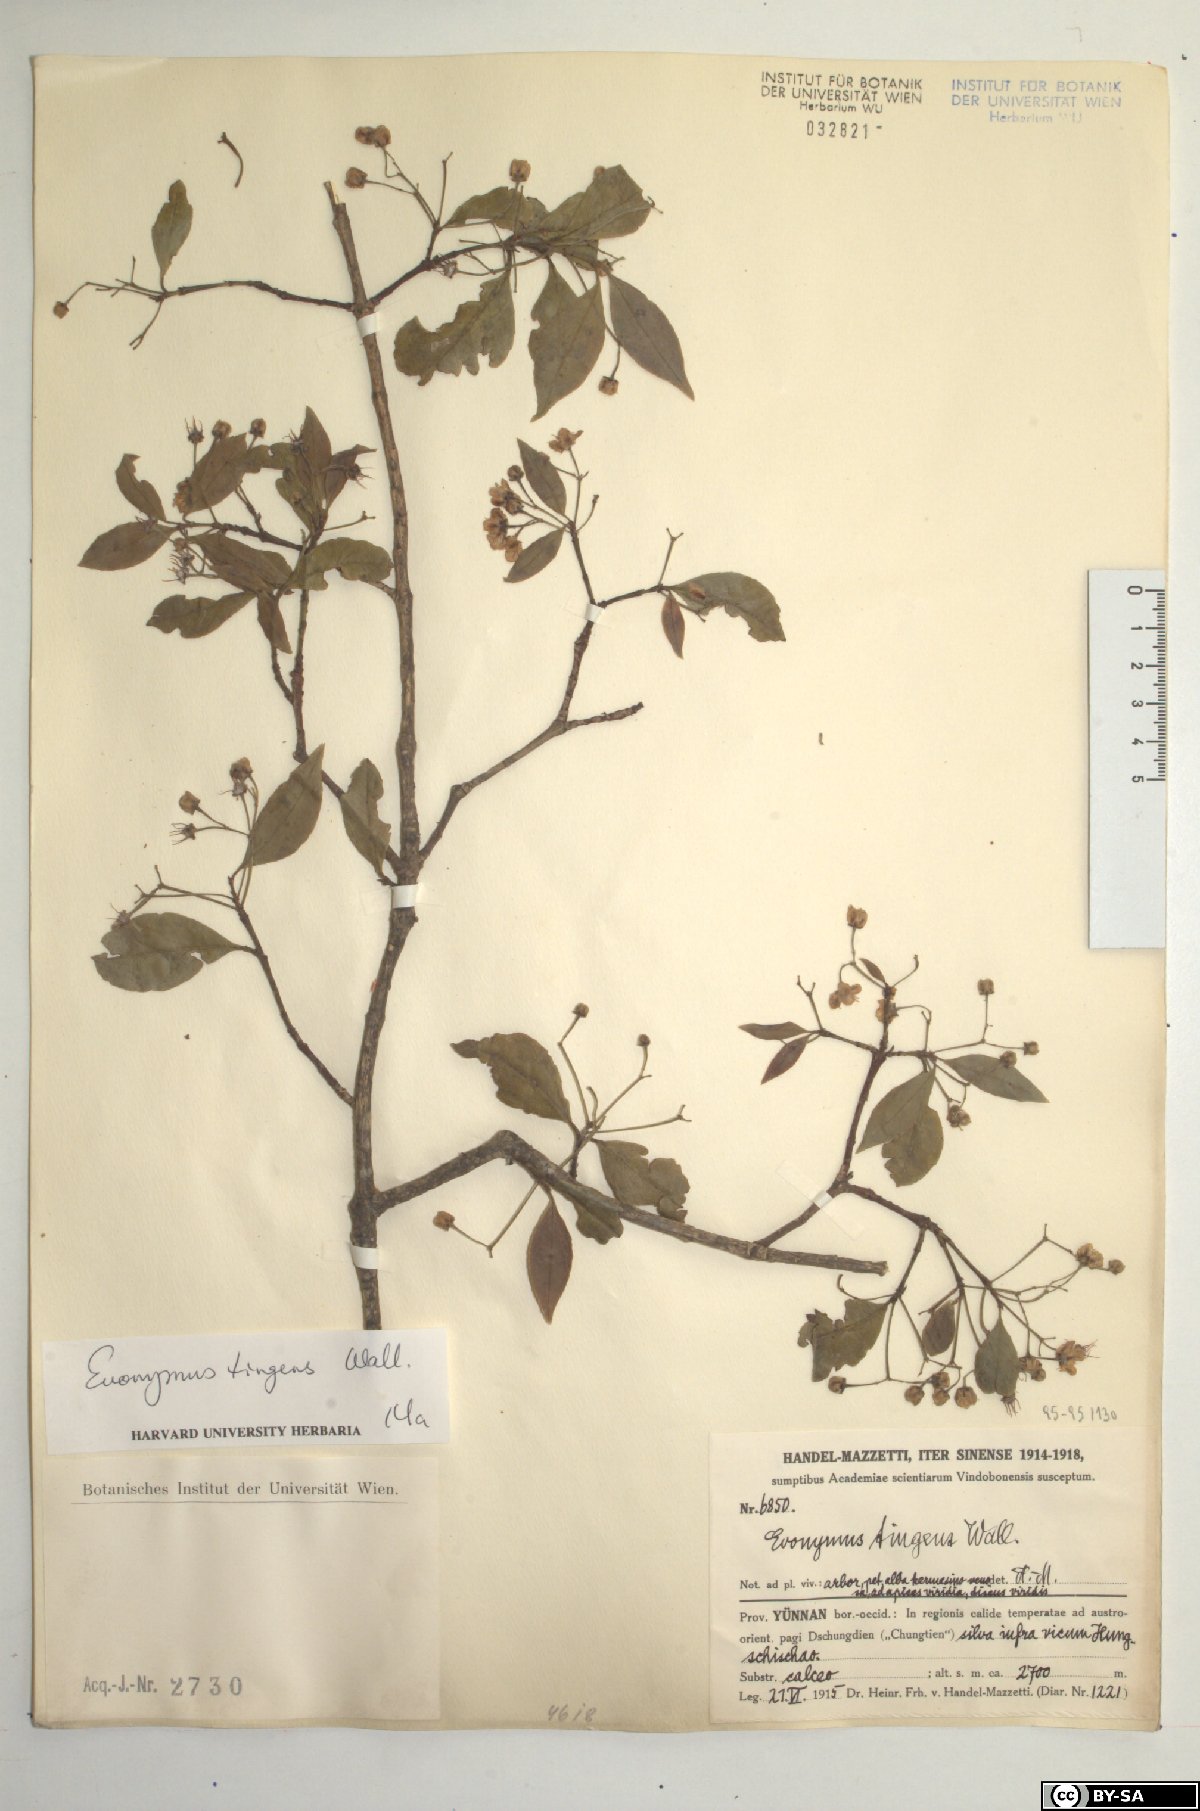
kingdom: Plantae
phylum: Tracheophyta
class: Magnoliopsida
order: Celastrales
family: Celastraceae
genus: Euonymus
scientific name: Euonymus tingens
